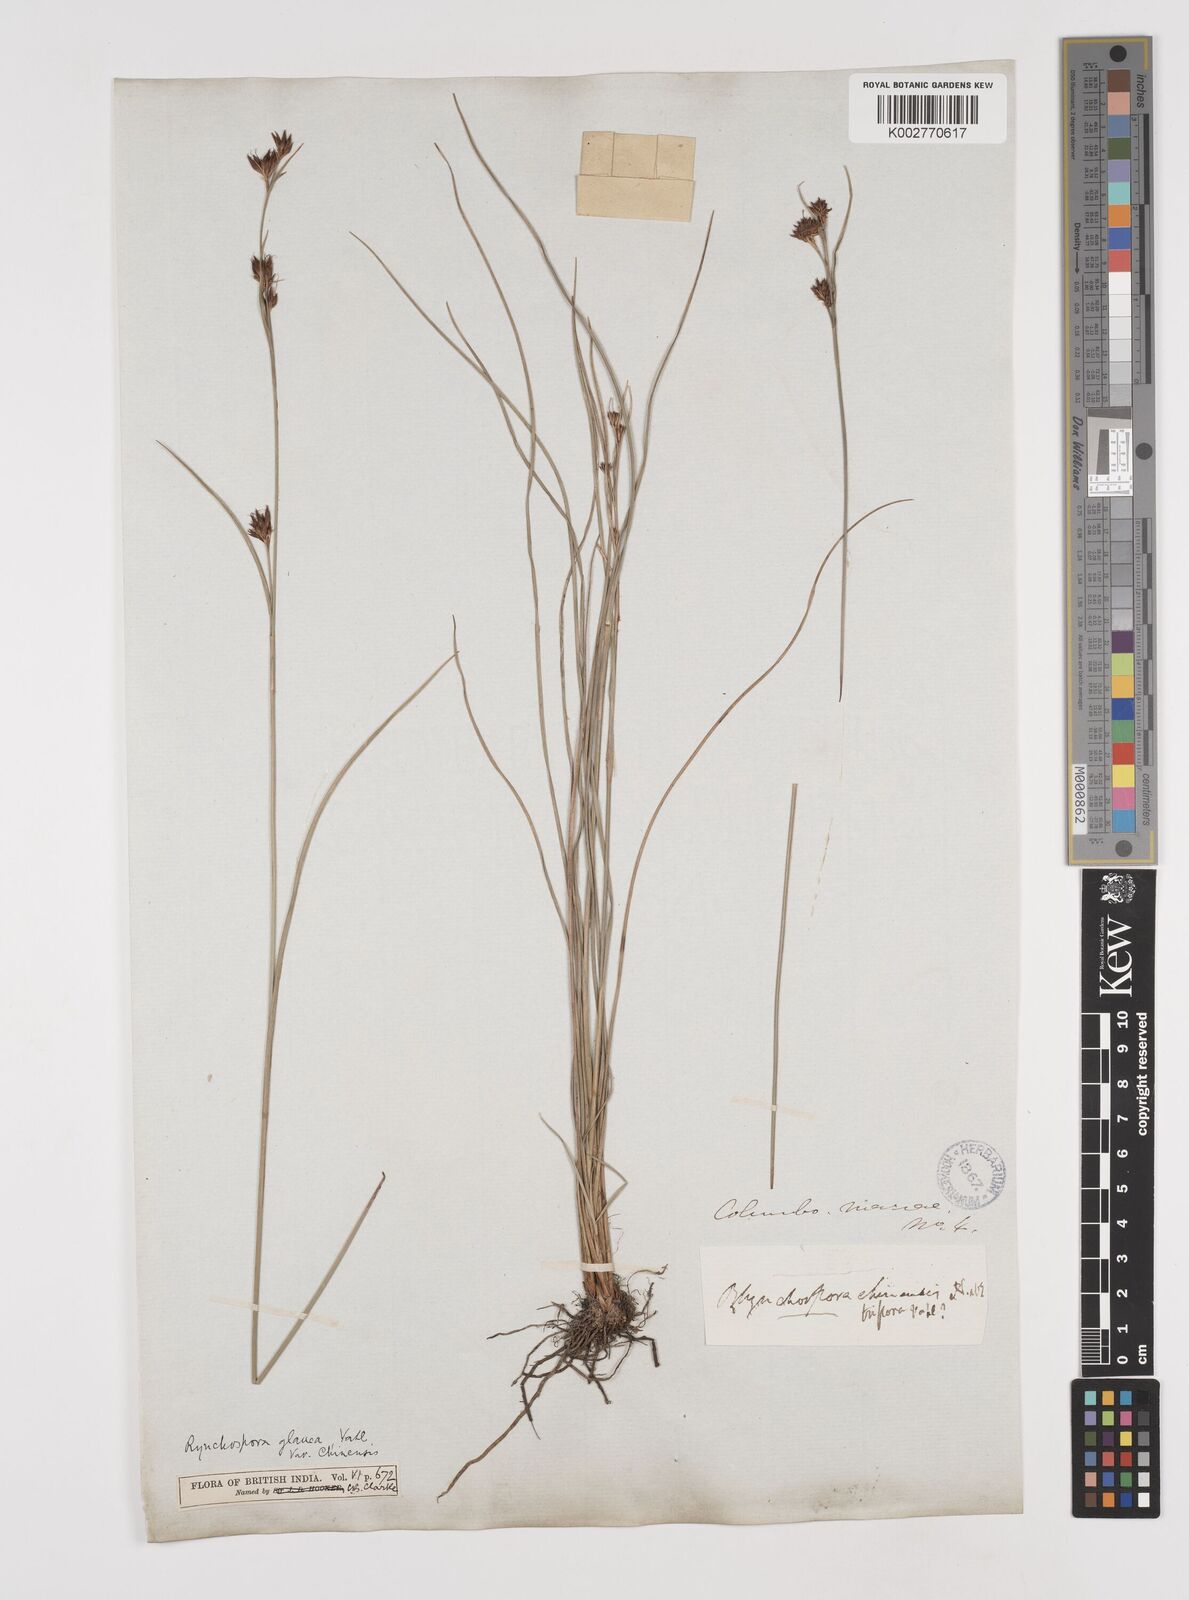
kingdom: Plantae
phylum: Tracheophyta
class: Liliopsida
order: Poales
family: Cyperaceae
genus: Rhynchospora
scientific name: Rhynchospora rugosa
